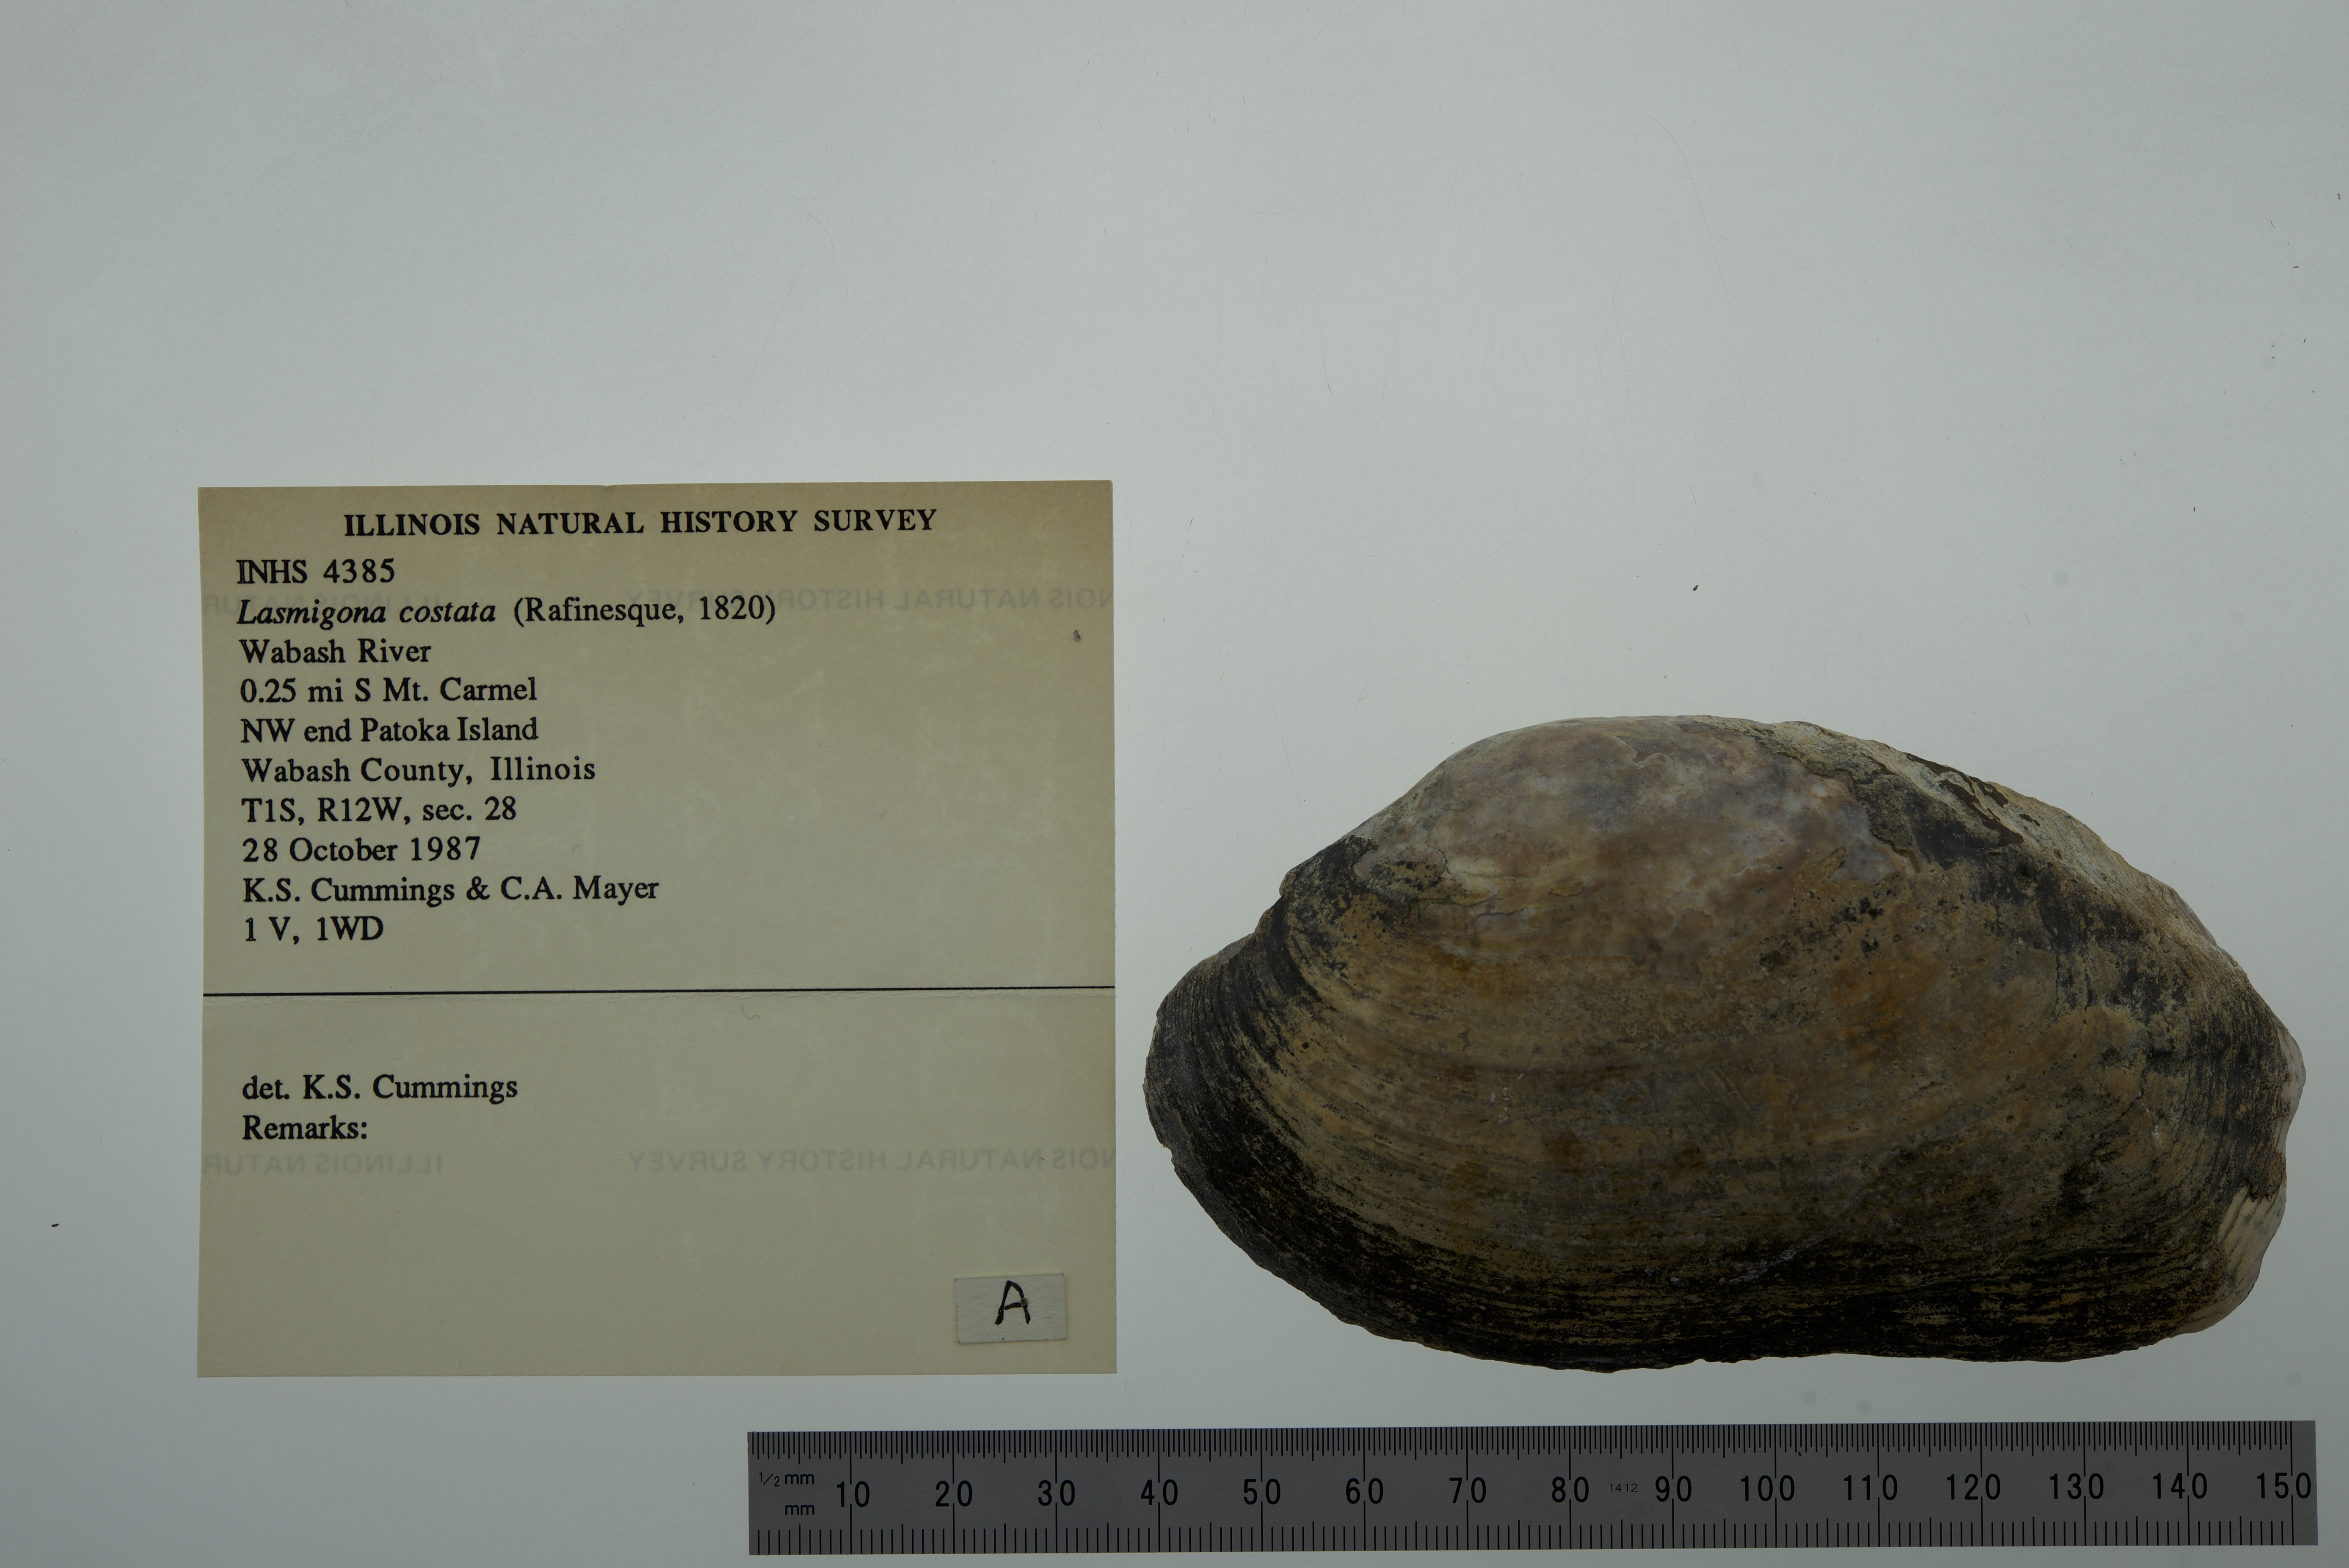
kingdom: Animalia
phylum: Mollusca
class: Bivalvia
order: Unionida
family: Unionidae
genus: Lasmigona
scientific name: Lasmigona costata
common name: Flutedshell
